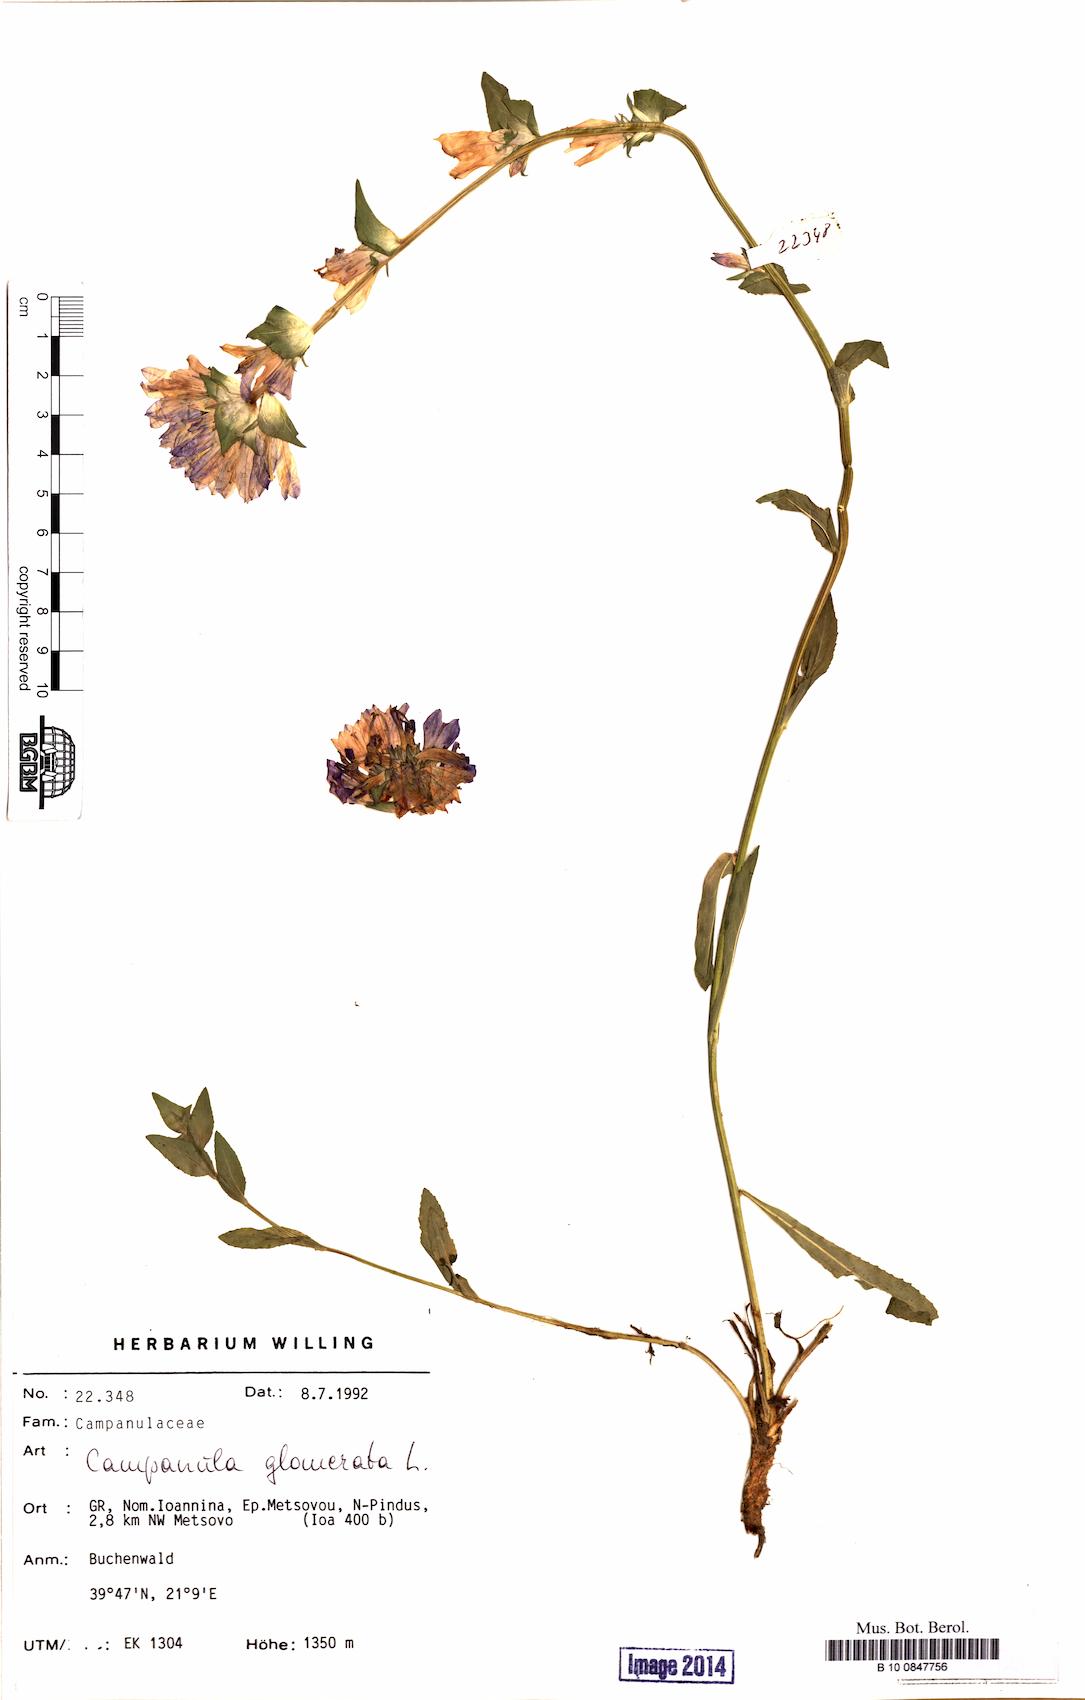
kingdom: Plantae
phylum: Tracheophyta
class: Magnoliopsida
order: Asterales
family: Campanulaceae
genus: Campanula
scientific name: Campanula glomerata
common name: Clustered bellflower
